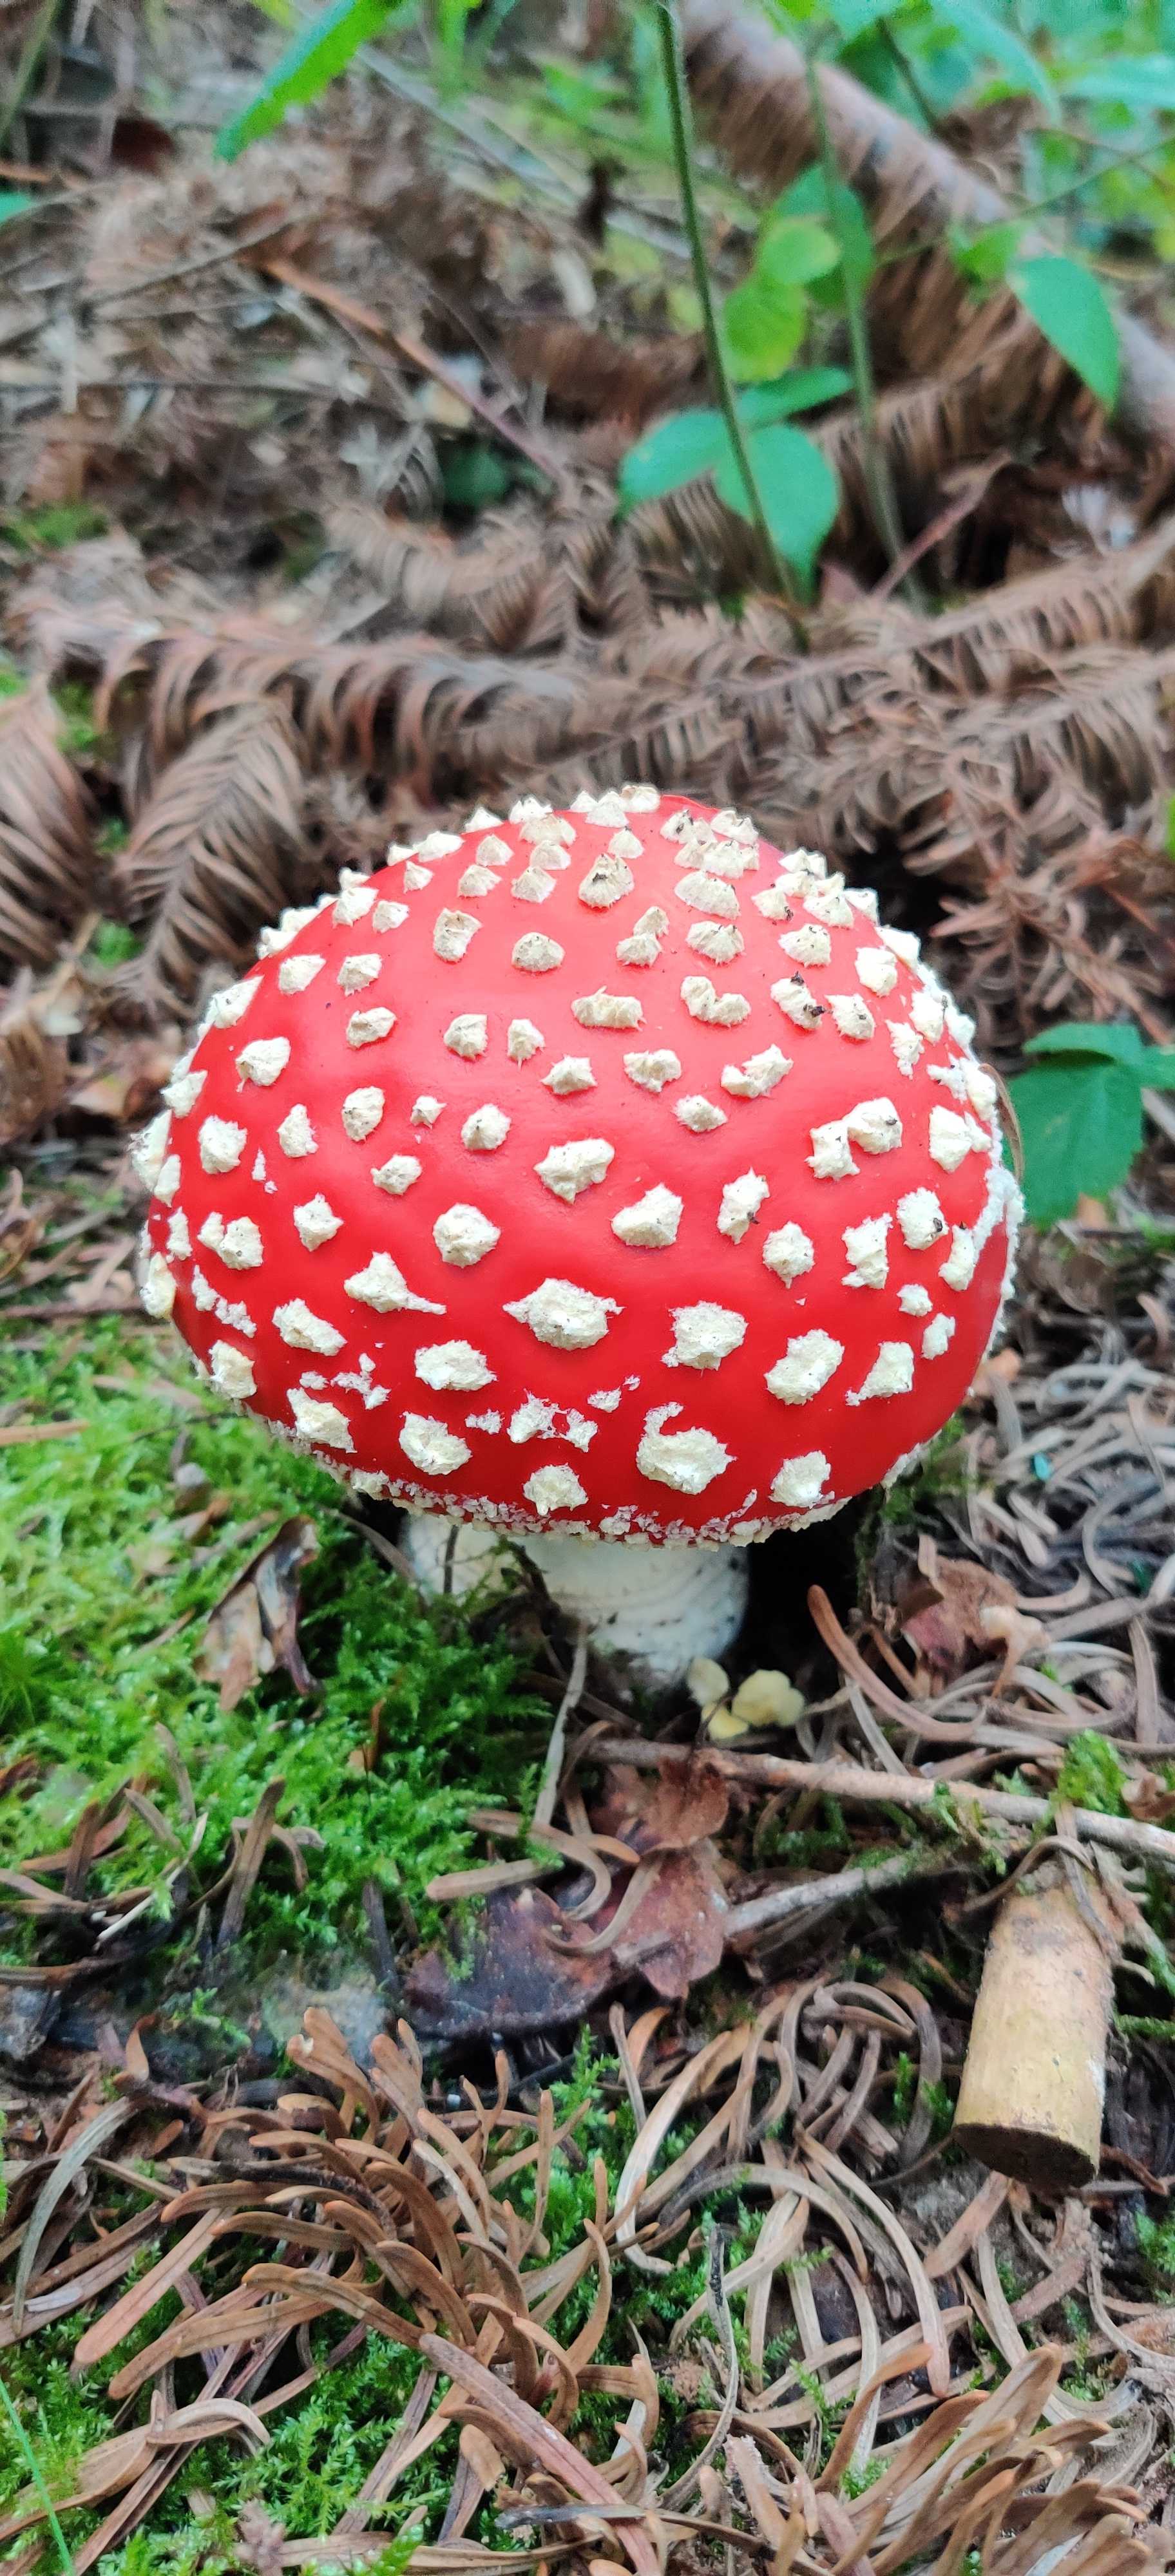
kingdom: Fungi
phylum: Basidiomycota
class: Agaricomycetes
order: Agaricales
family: Amanitaceae
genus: Amanita
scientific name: Amanita muscaria
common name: rød fluesvamp
